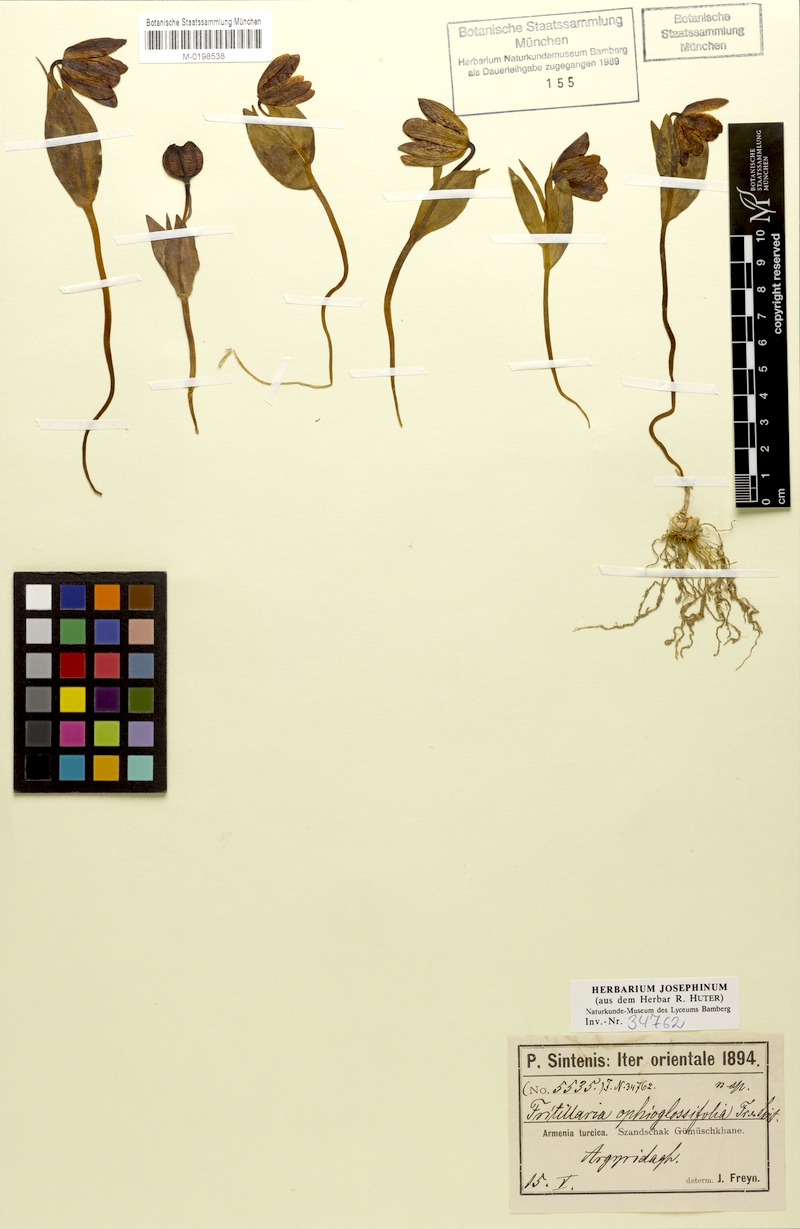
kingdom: Plantae
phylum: Tracheophyta
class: Liliopsida
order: Liliales
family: Liliaceae
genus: Fritillaria
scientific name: Fritillaria crassifolia
